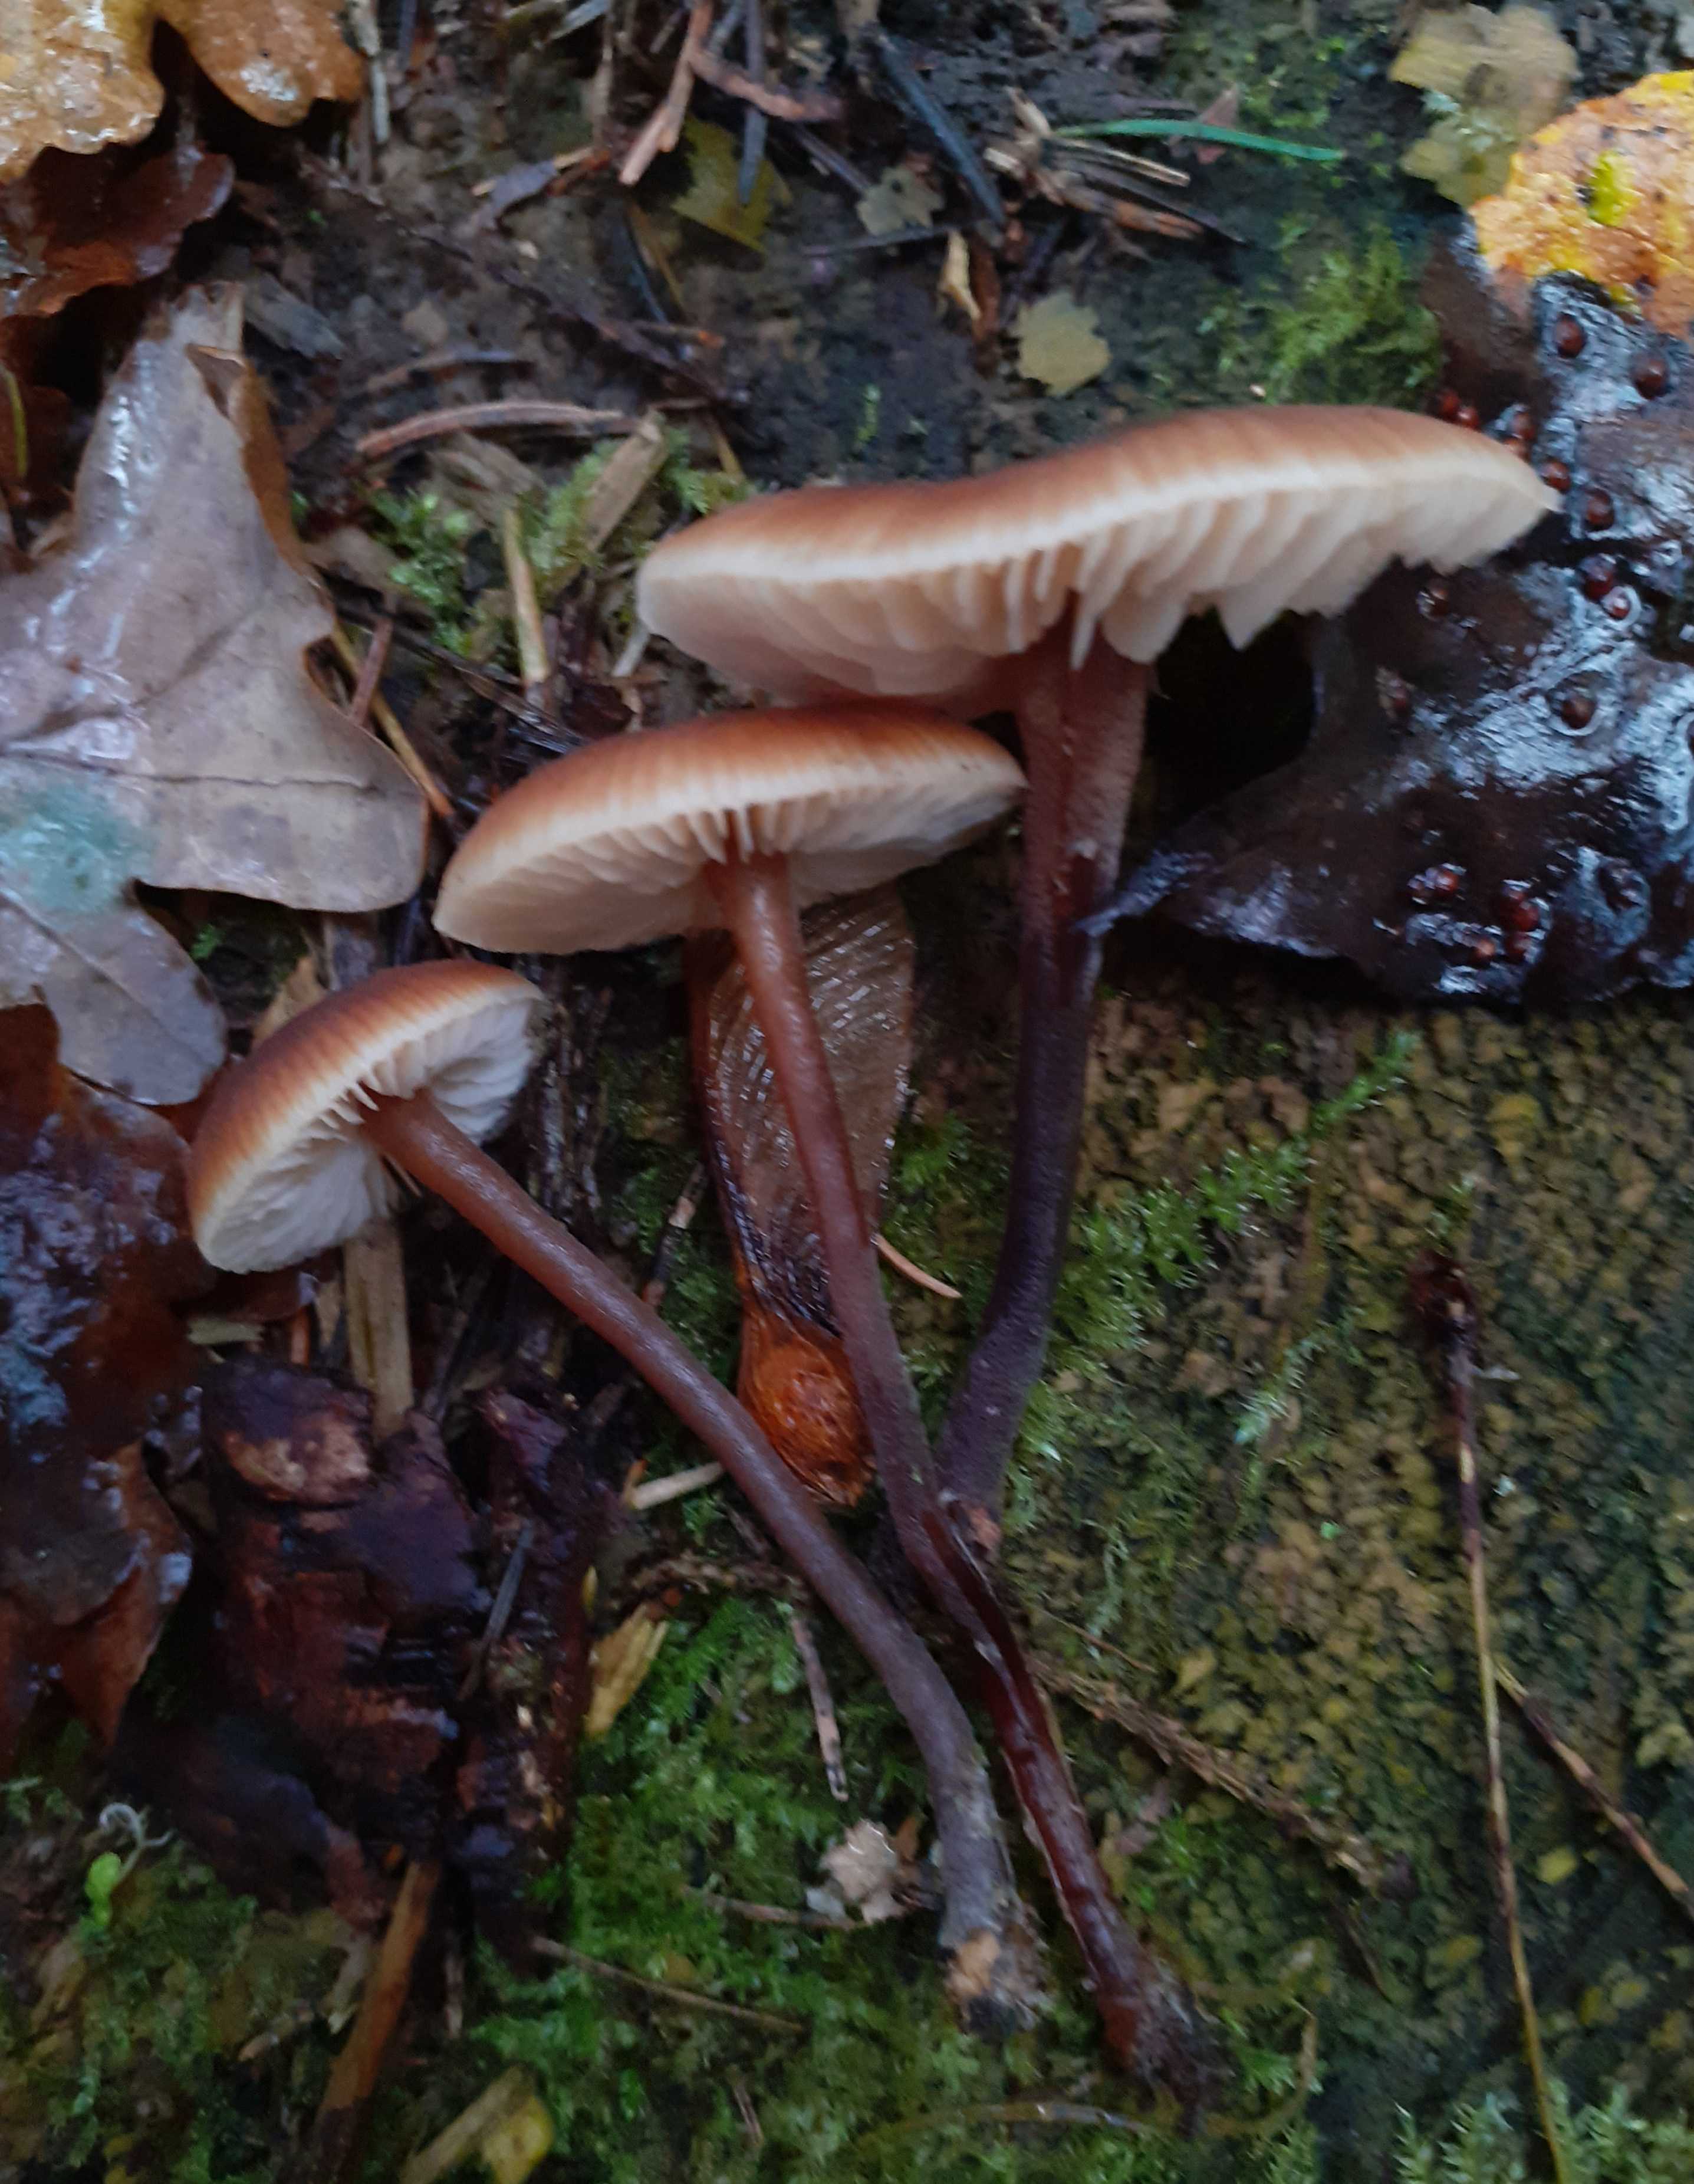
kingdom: Fungi
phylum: Basidiomycota
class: Agaricomycetes
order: Agaricales
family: Macrocystidiaceae
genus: Macrocystidia
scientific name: Macrocystidia cucumis
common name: agurkehat
